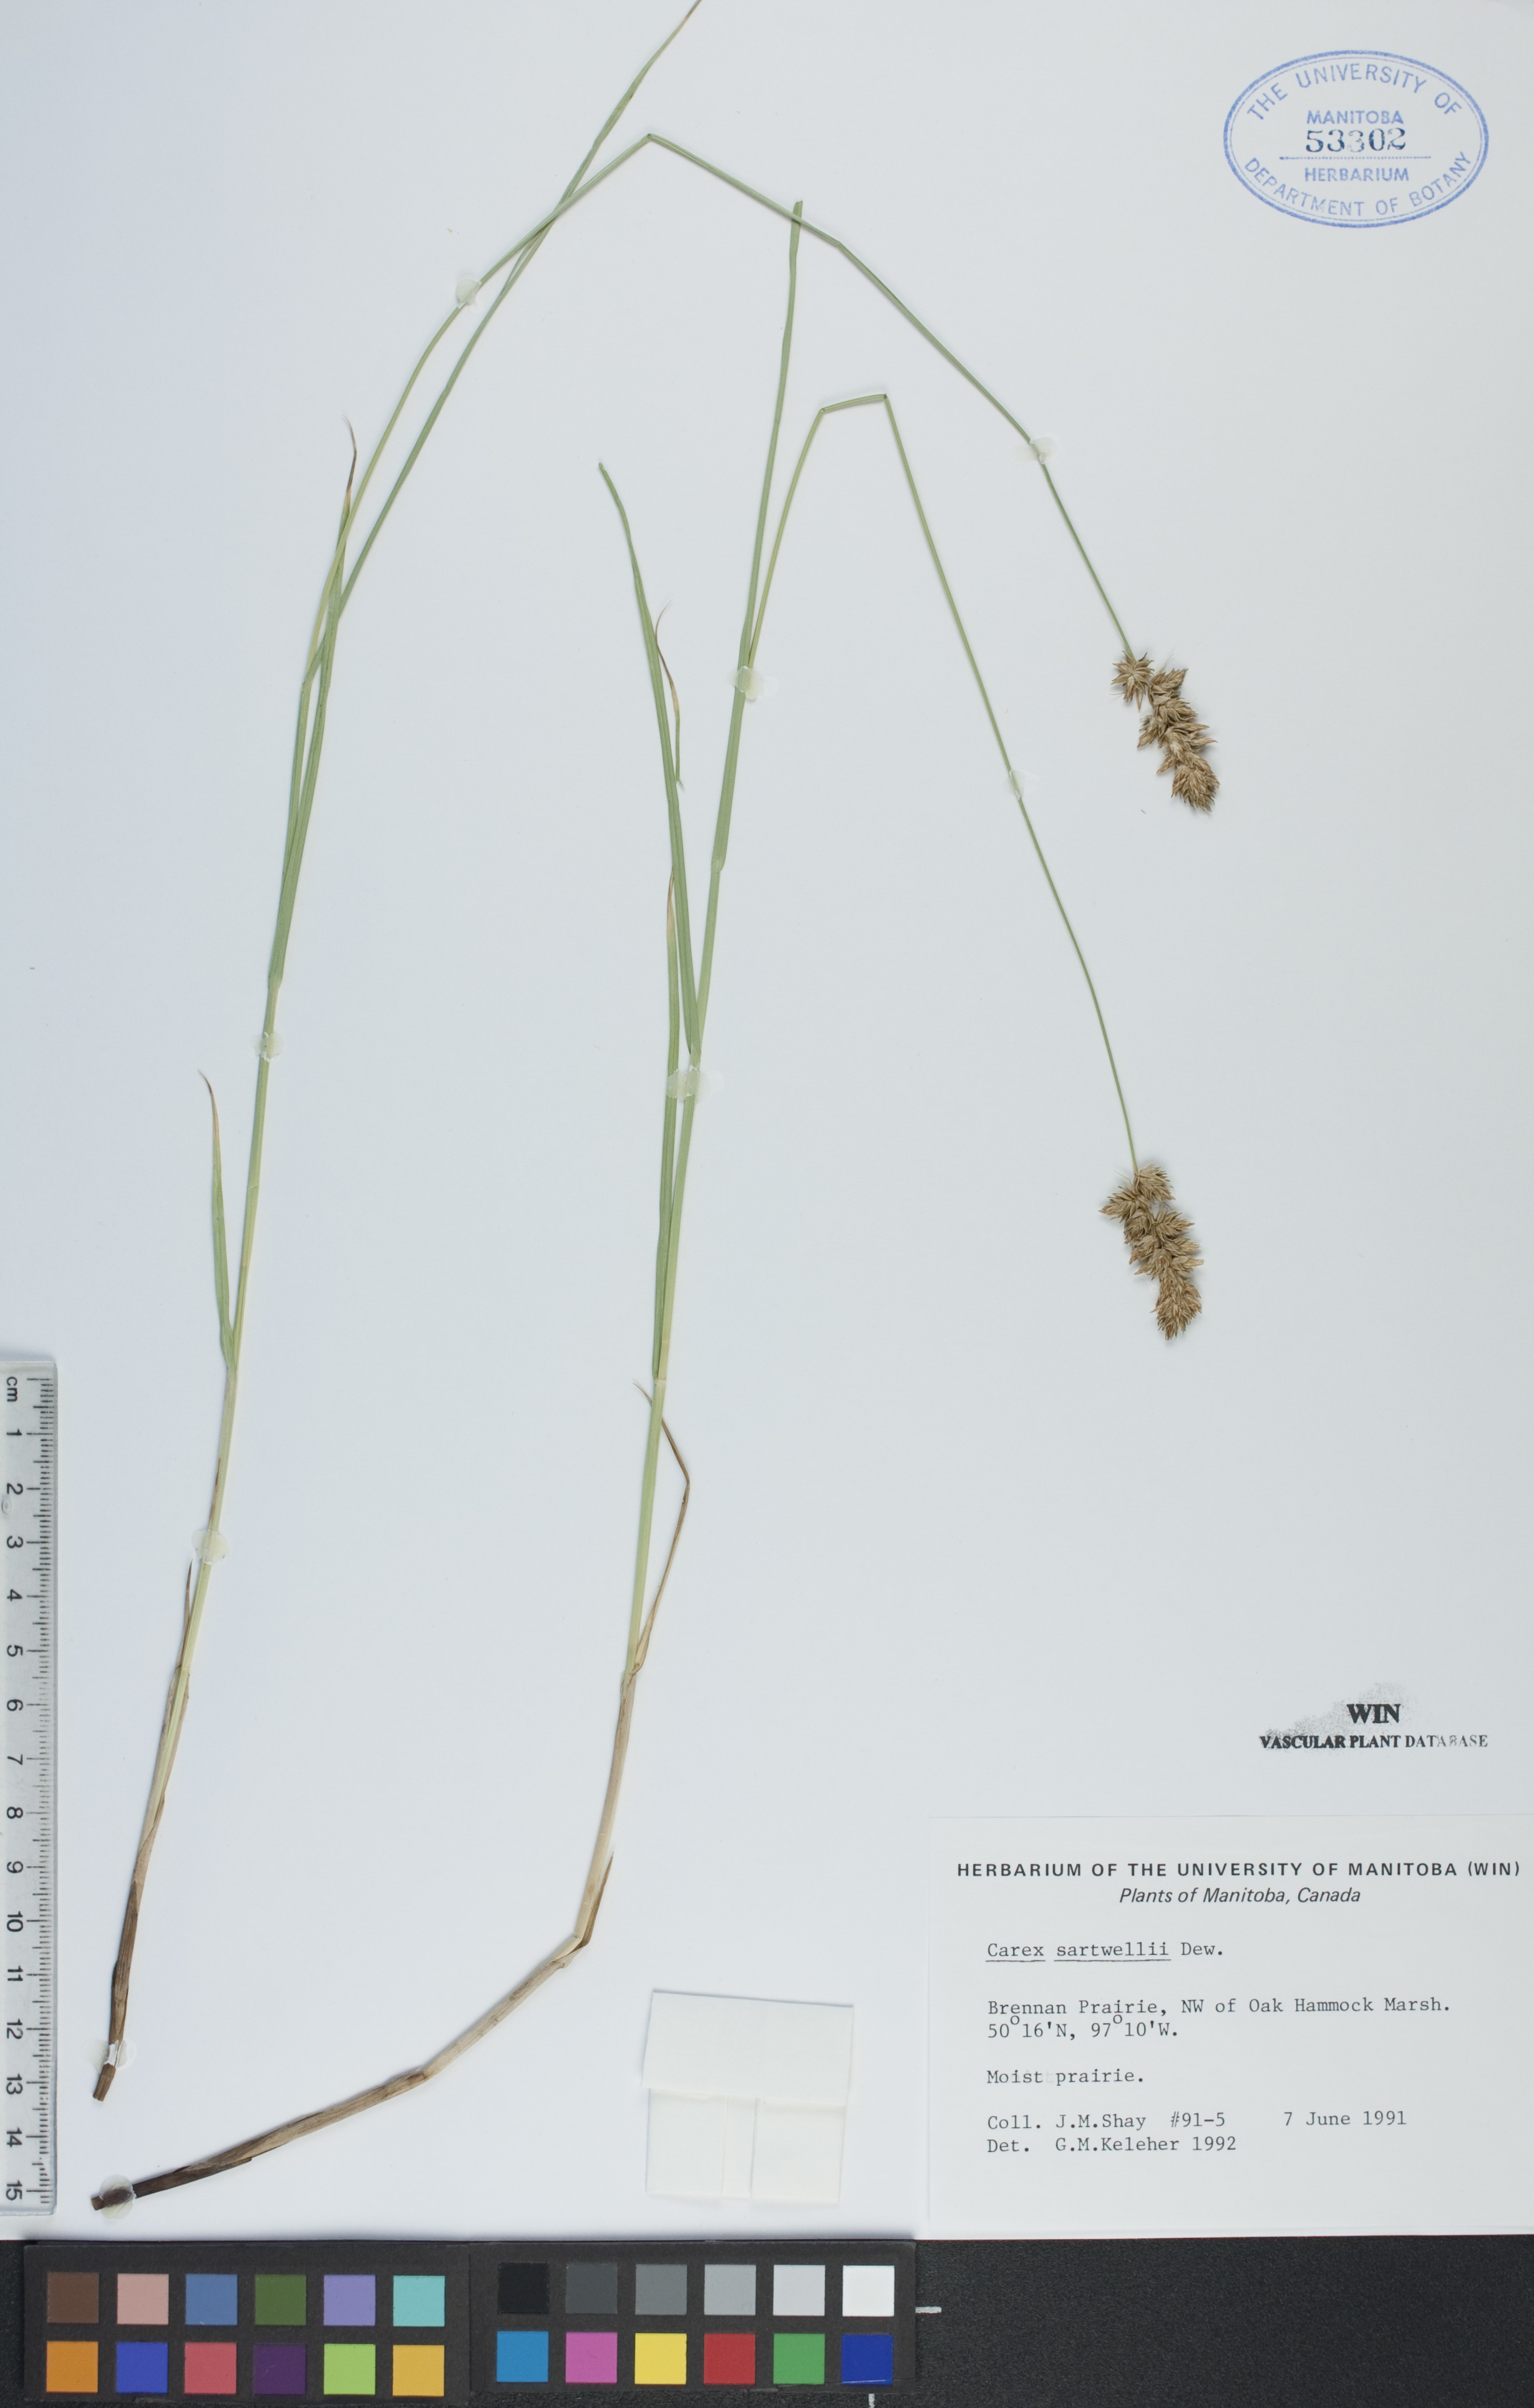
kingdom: Plantae
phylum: Tracheophyta
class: Liliopsida
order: Poales
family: Cyperaceae
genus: Carex
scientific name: Carex sartwellii
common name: Sartwell's sedge
